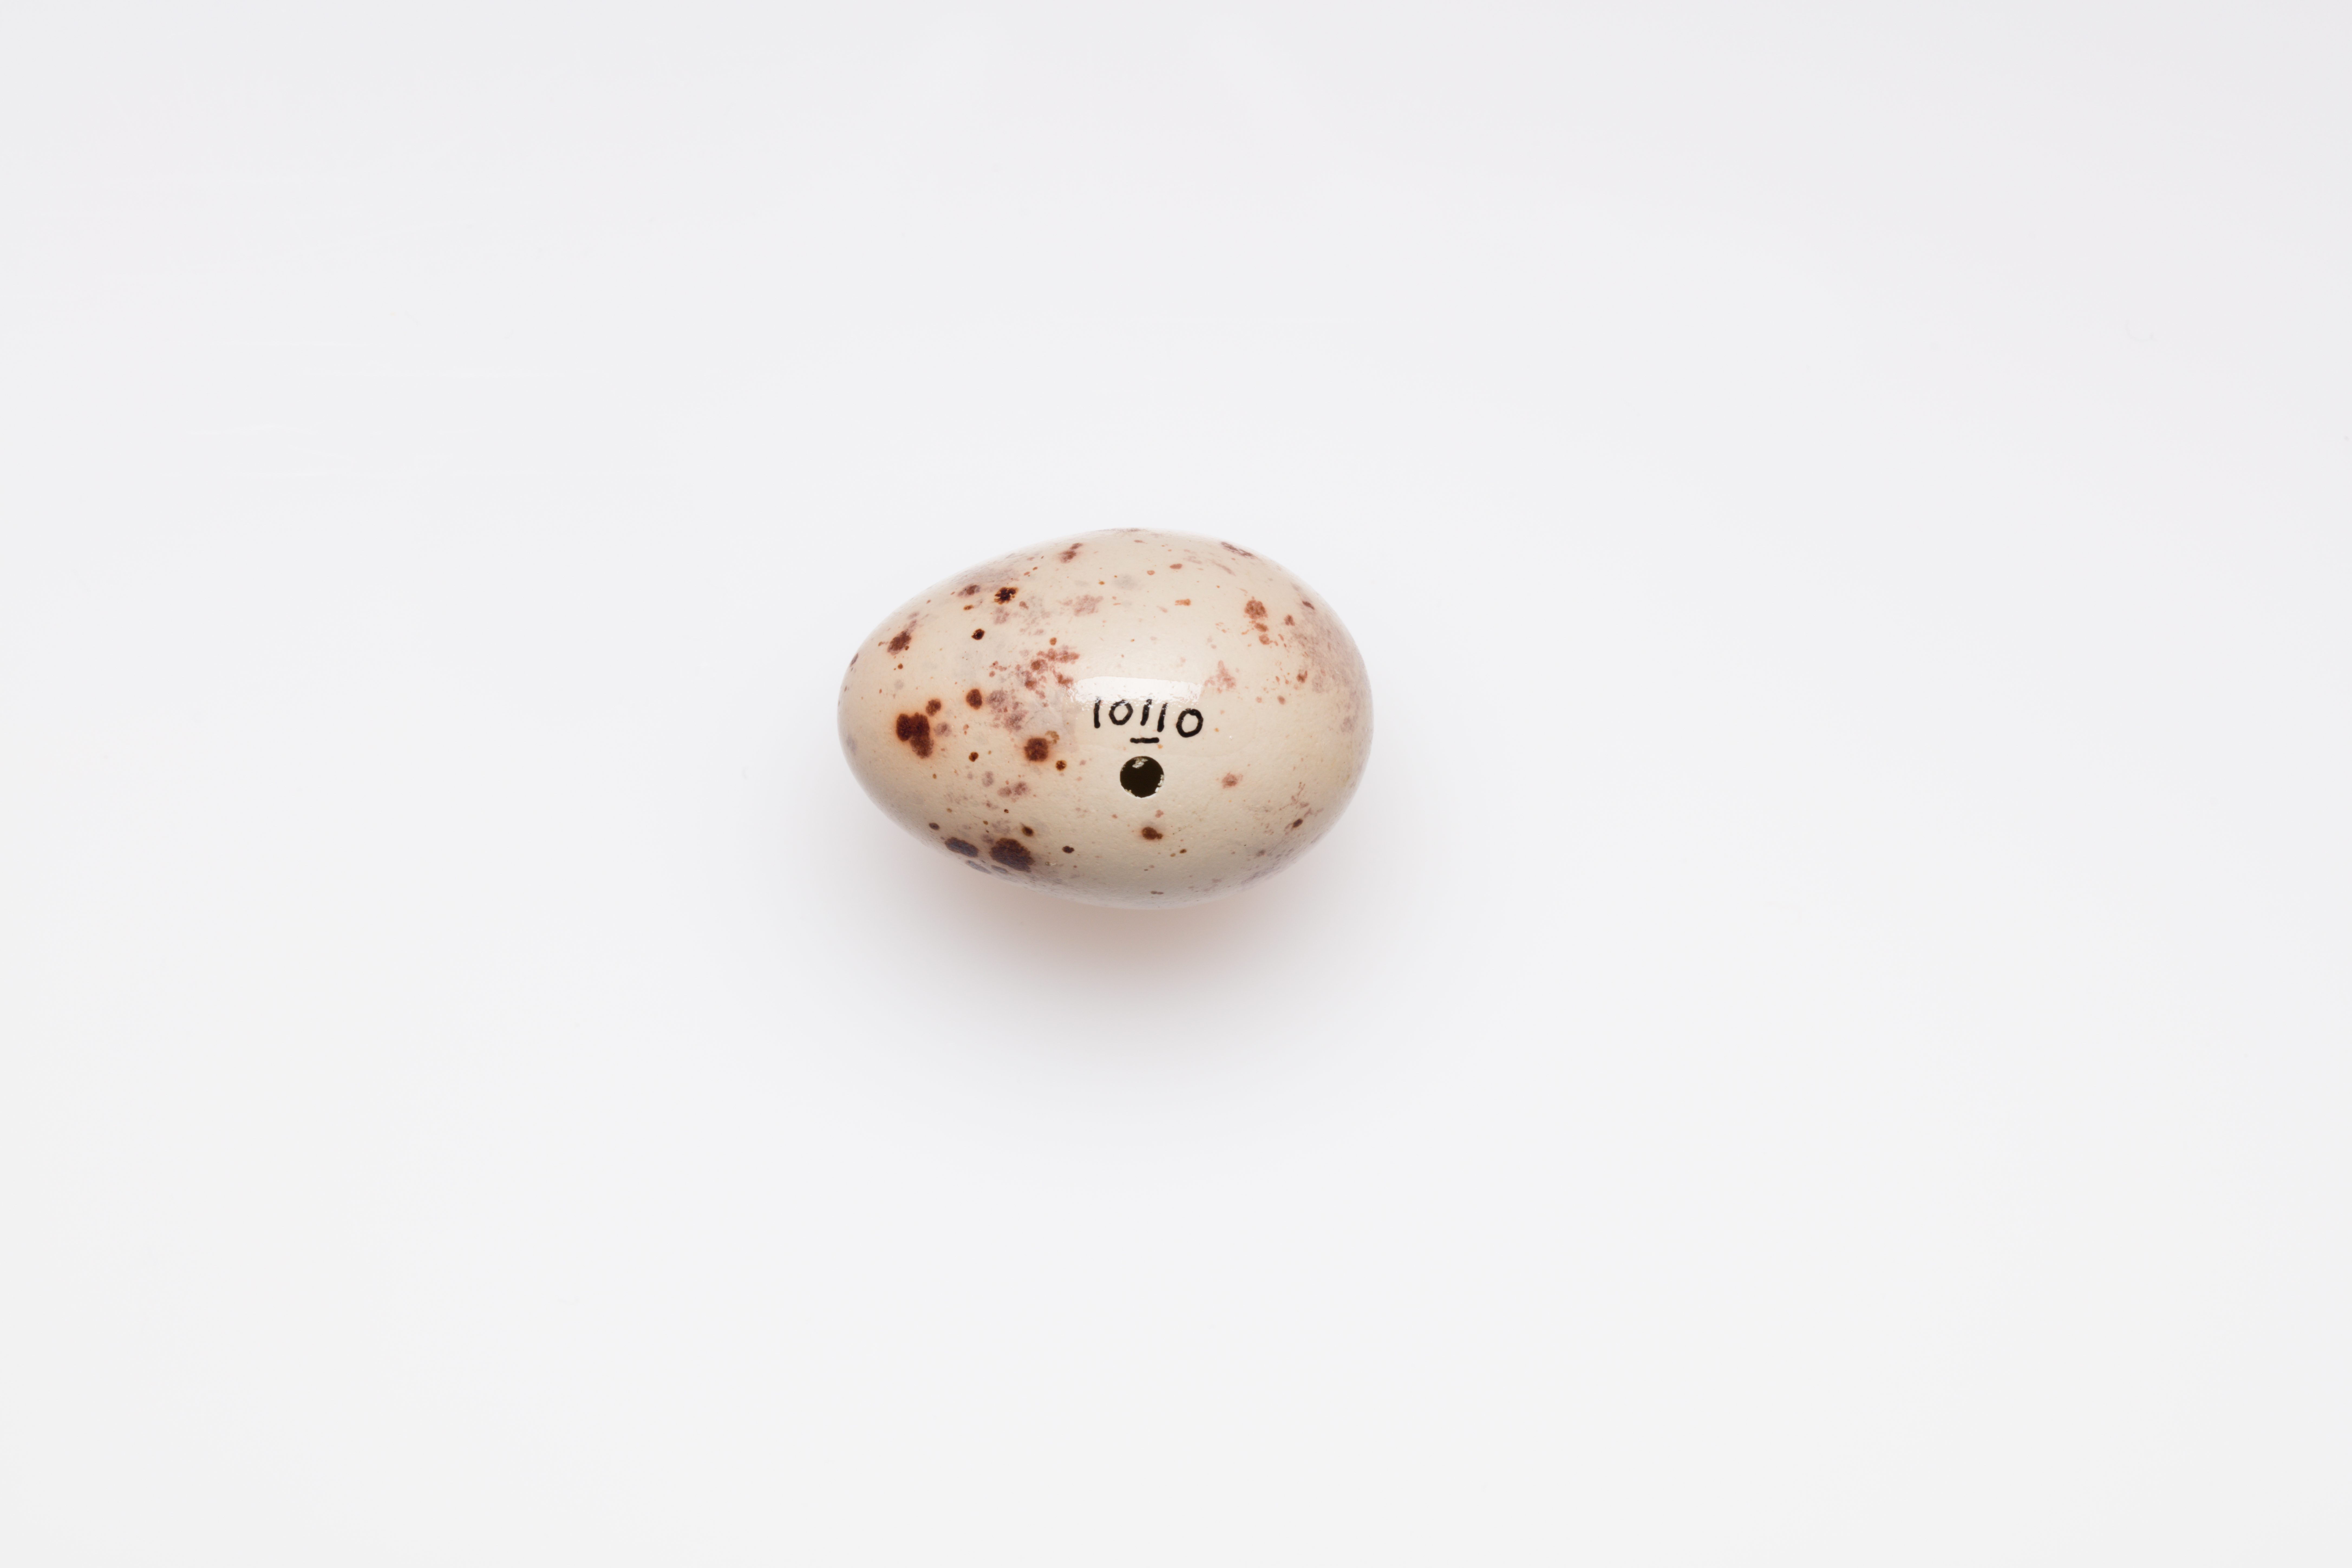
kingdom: Animalia
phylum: Chordata
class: Aves
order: Passeriformes
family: Turdidae
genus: Turdus
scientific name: Turdus viscivorus
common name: Mistle thrush
